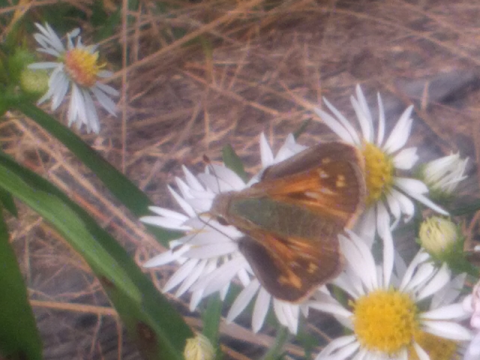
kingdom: Animalia
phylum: Arthropoda
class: Insecta
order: Lepidoptera
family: Hesperiidae
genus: Hesperia
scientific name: Hesperia comma
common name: Common Branded Skipper
